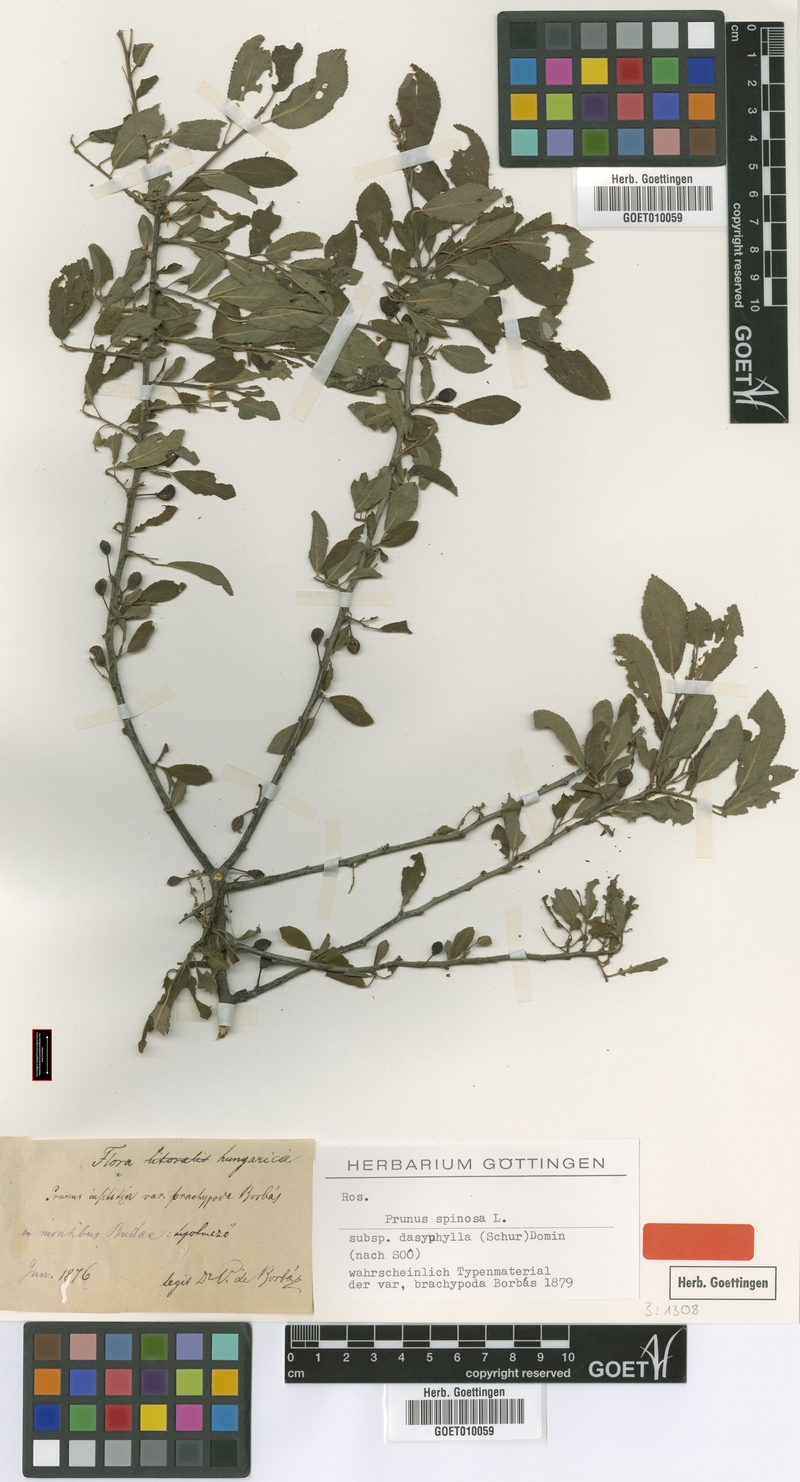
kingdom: Plantae
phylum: Tracheophyta
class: Magnoliopsida
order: Rosales
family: Rosaceae
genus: Prunus
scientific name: Prunus spinosa
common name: Blackthorn
